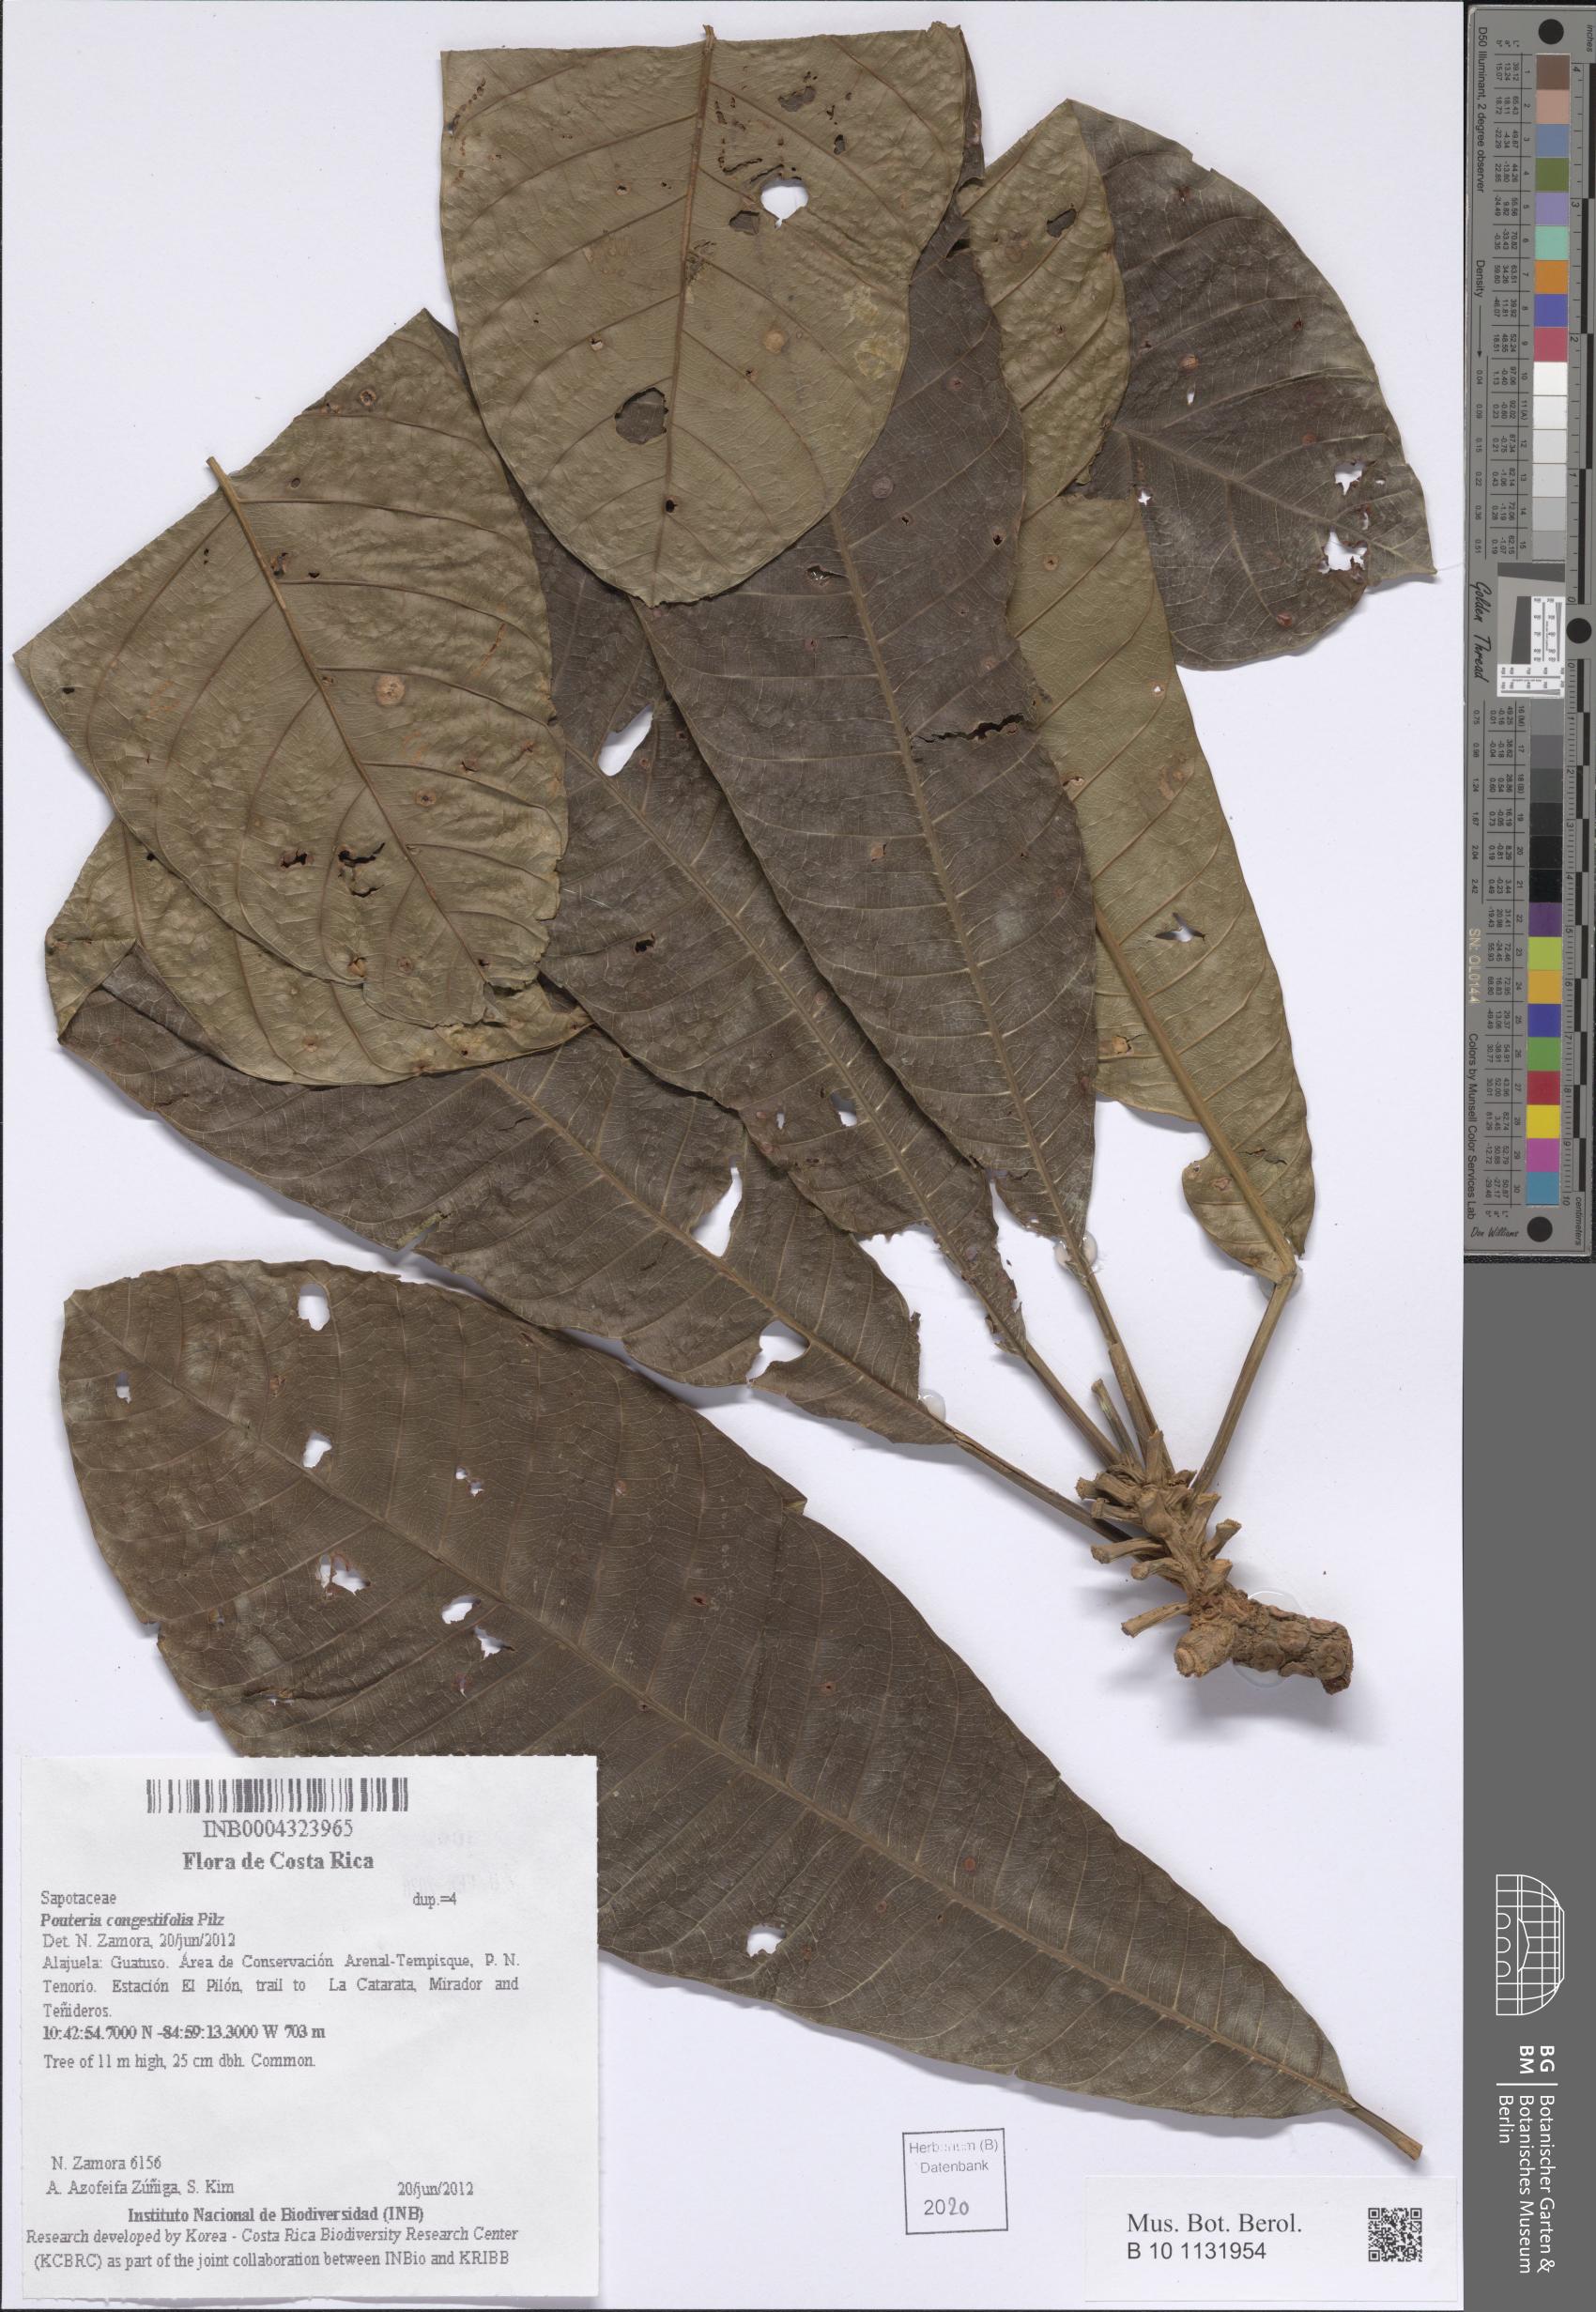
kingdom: Plantae
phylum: Tracheophyta
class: Magnoliopsida
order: Ericales
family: Sapotaceae
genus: Chromolucuma
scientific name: Chromolucuma congestifolia
